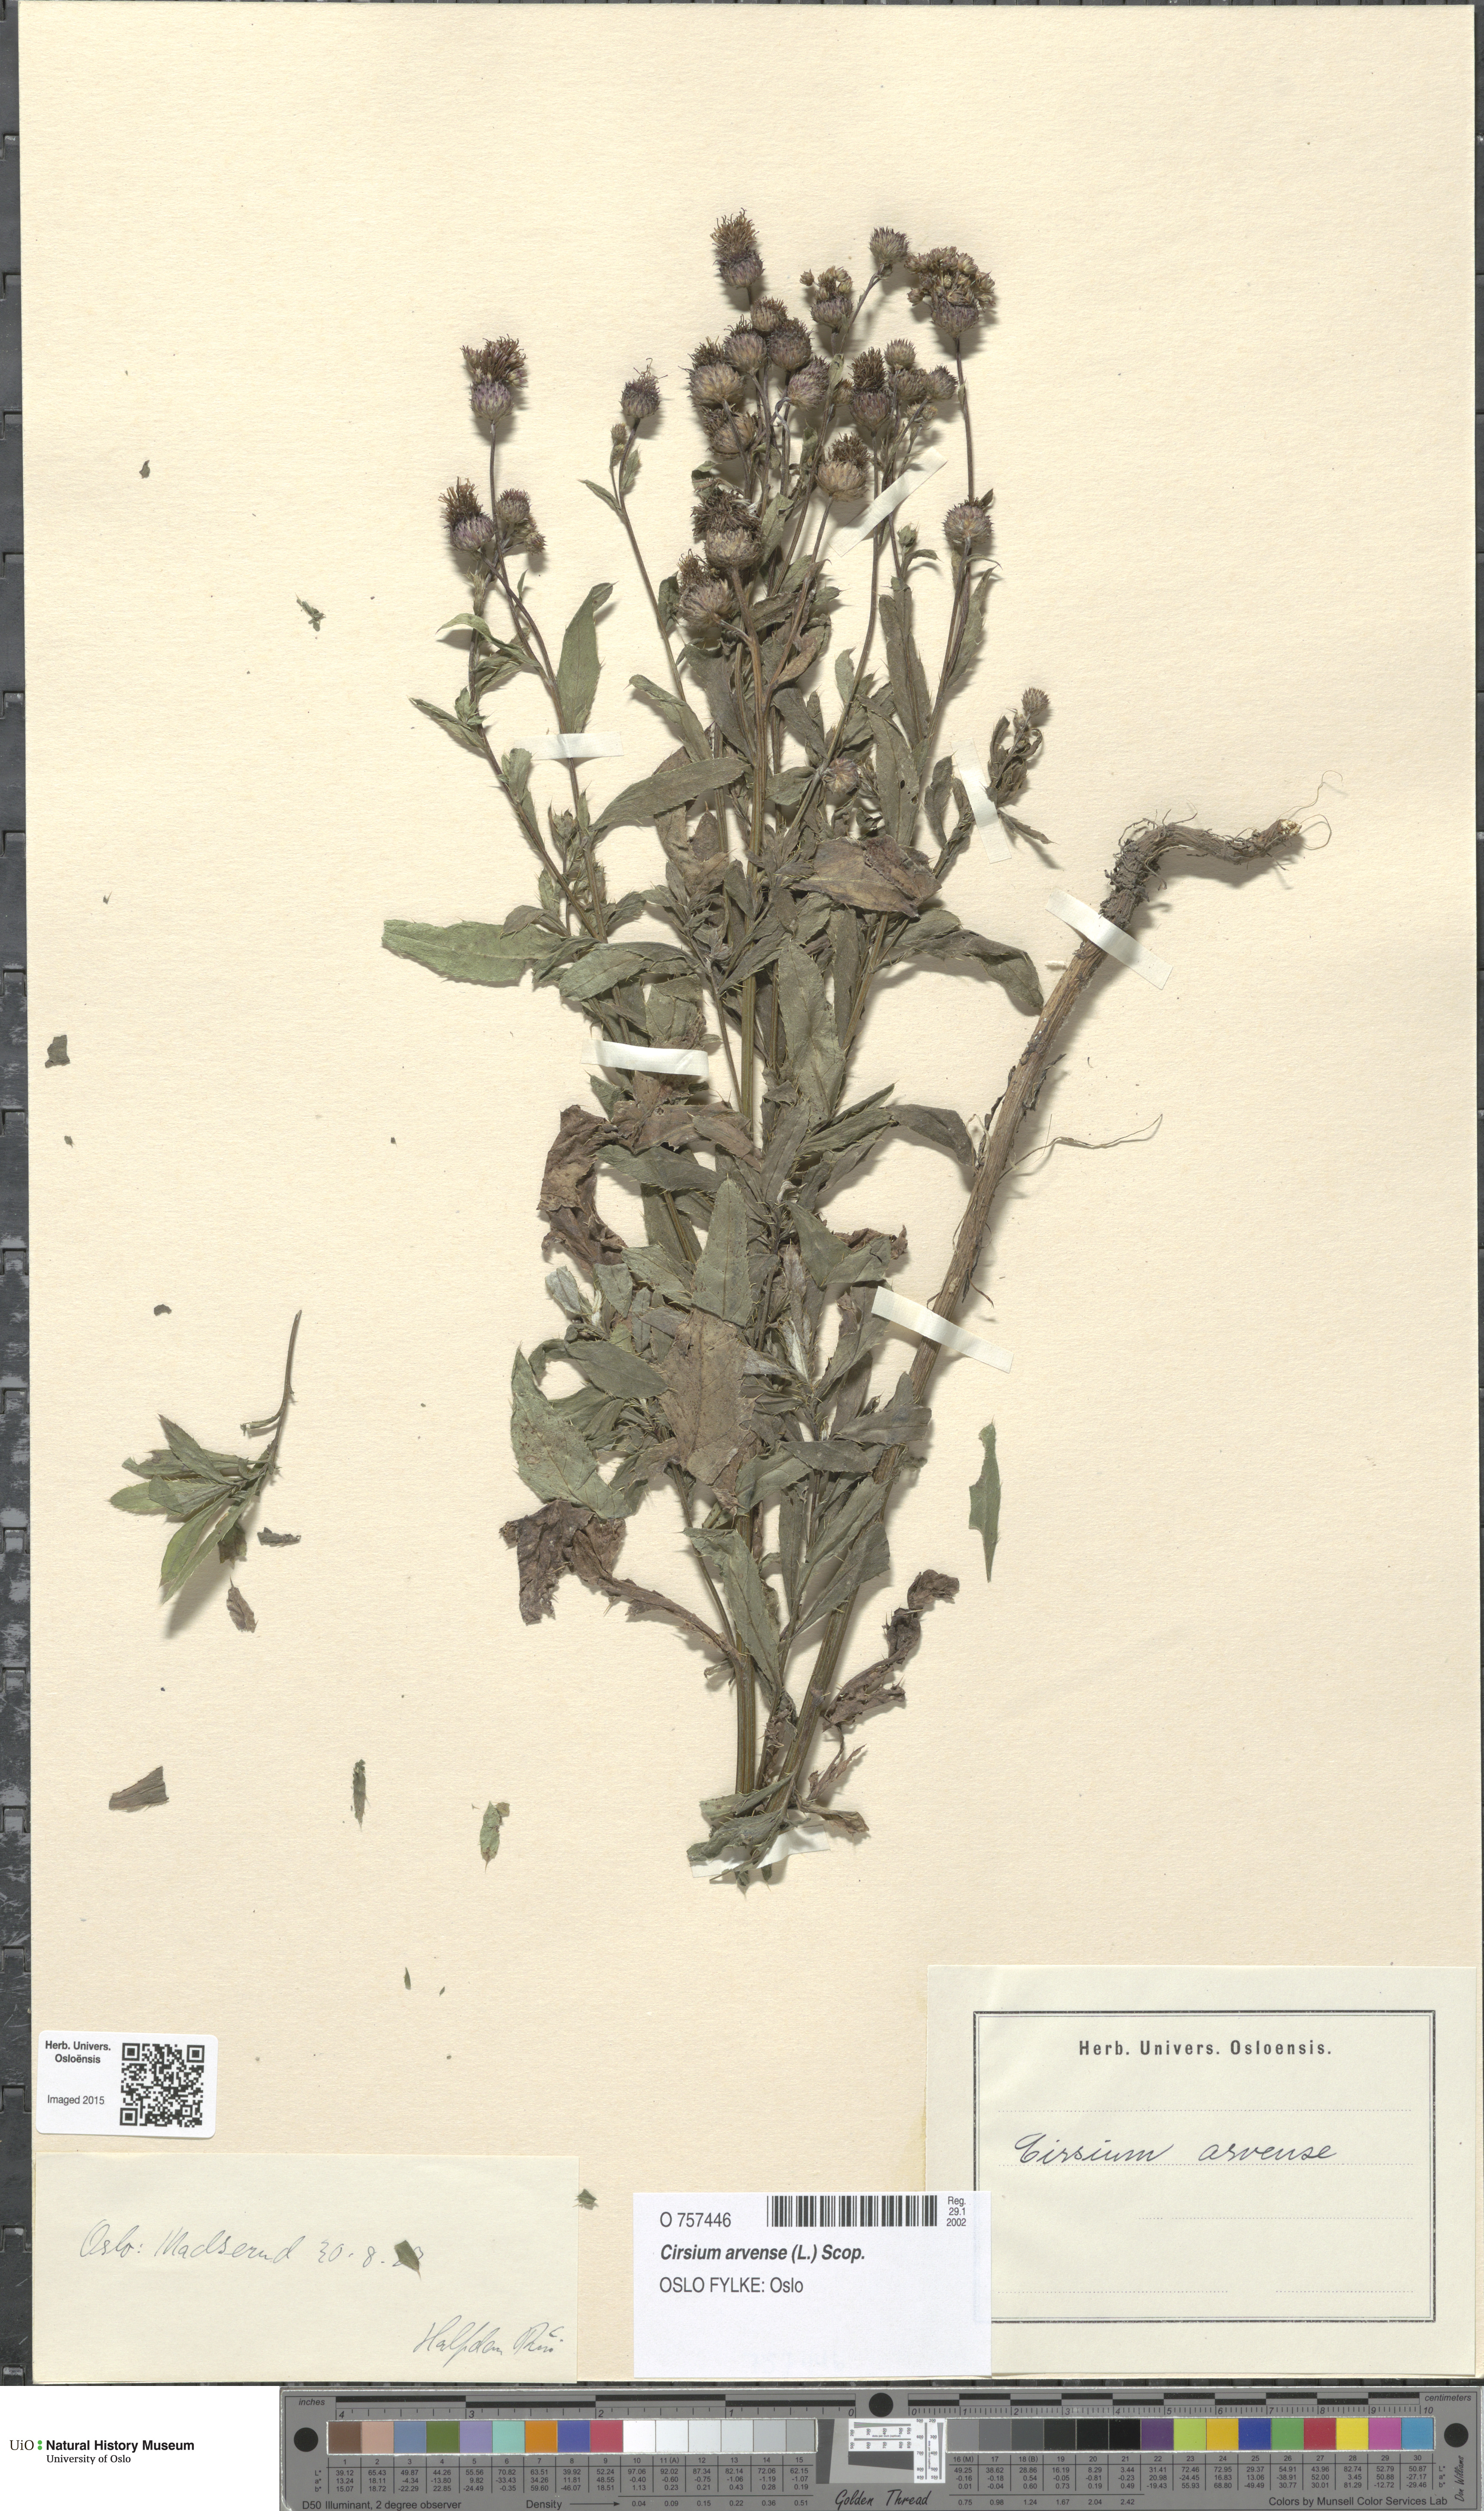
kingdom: Plantae
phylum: Tracheophyta
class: Magnoliopsida
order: Asterales
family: Asteraceae
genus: Cirsium
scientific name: Cirsium arvense
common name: Creeping thistle
